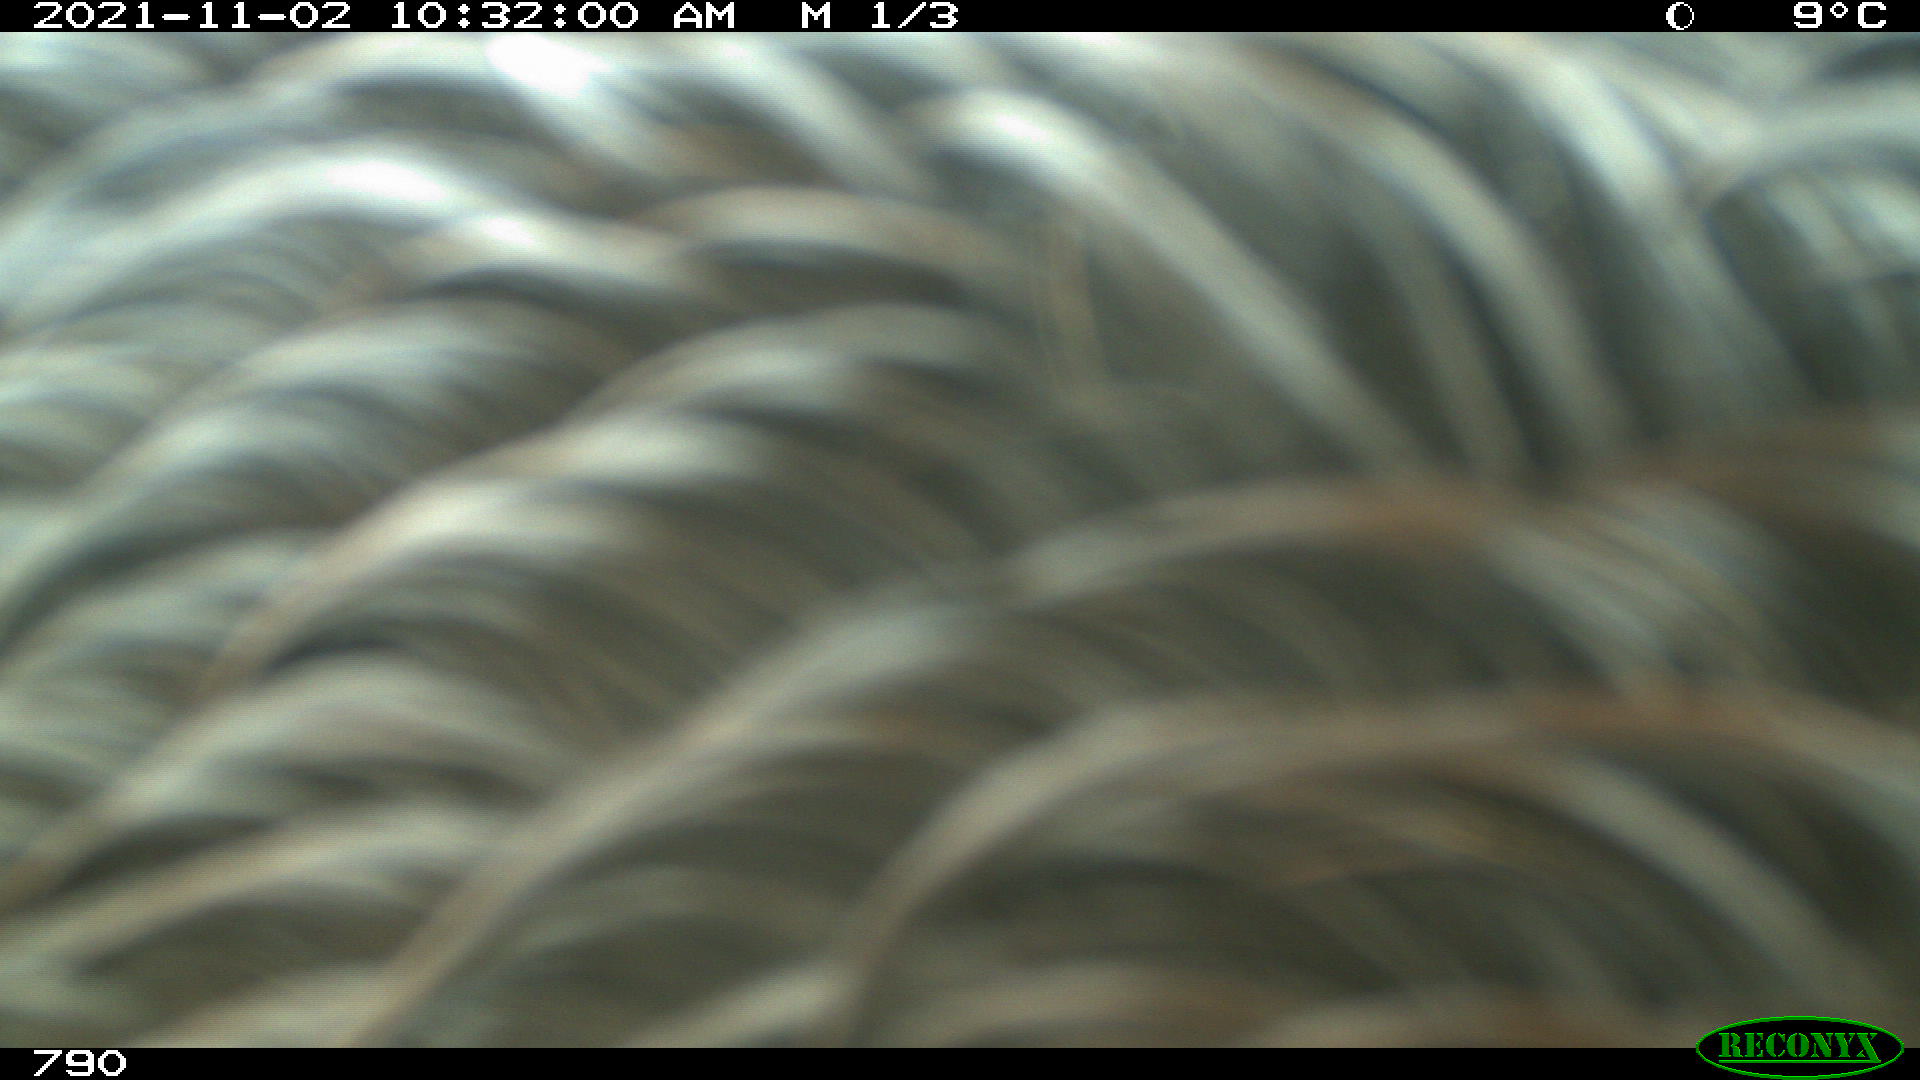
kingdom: Animalia
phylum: Chordata
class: Mammalia
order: Perissodactyla
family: Equidae
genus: Equus
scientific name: Equus caballus
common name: Horse
